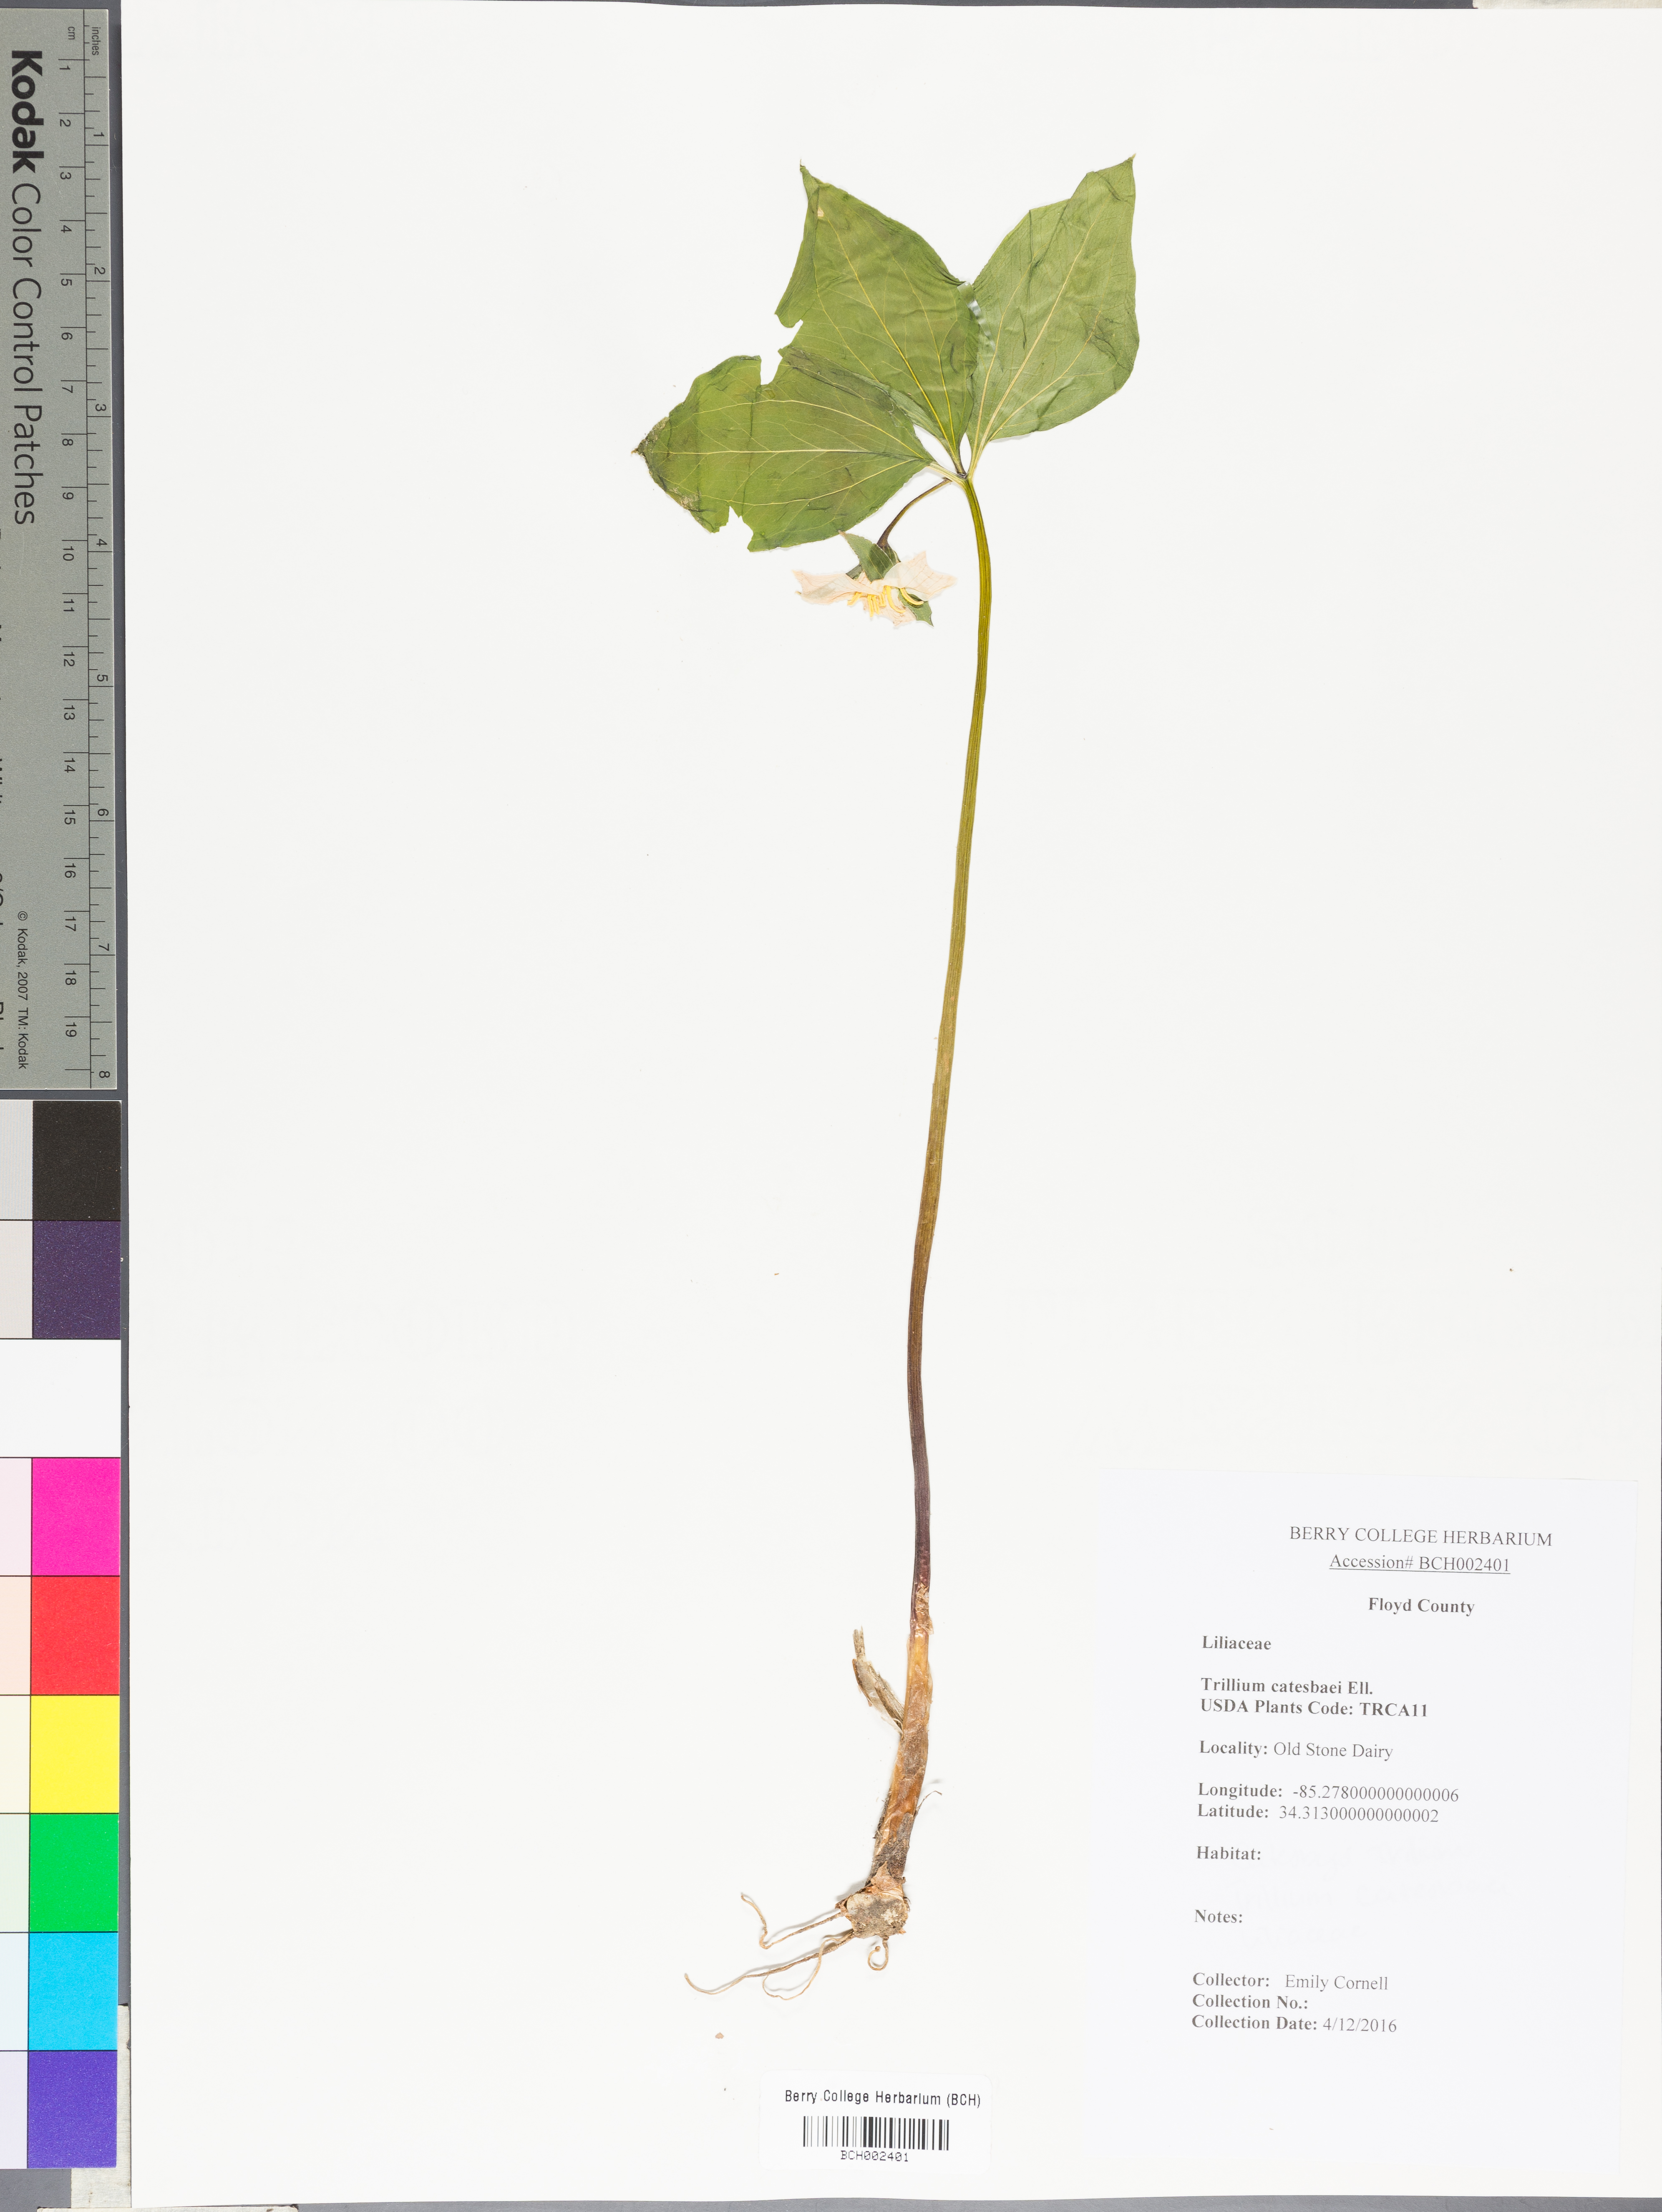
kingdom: Plantae
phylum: Tracheophyta
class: Liliopsida
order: Liliales
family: Melanthiaceae
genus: Trillium
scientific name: Trillium catesbaei
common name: Bashful trillium
